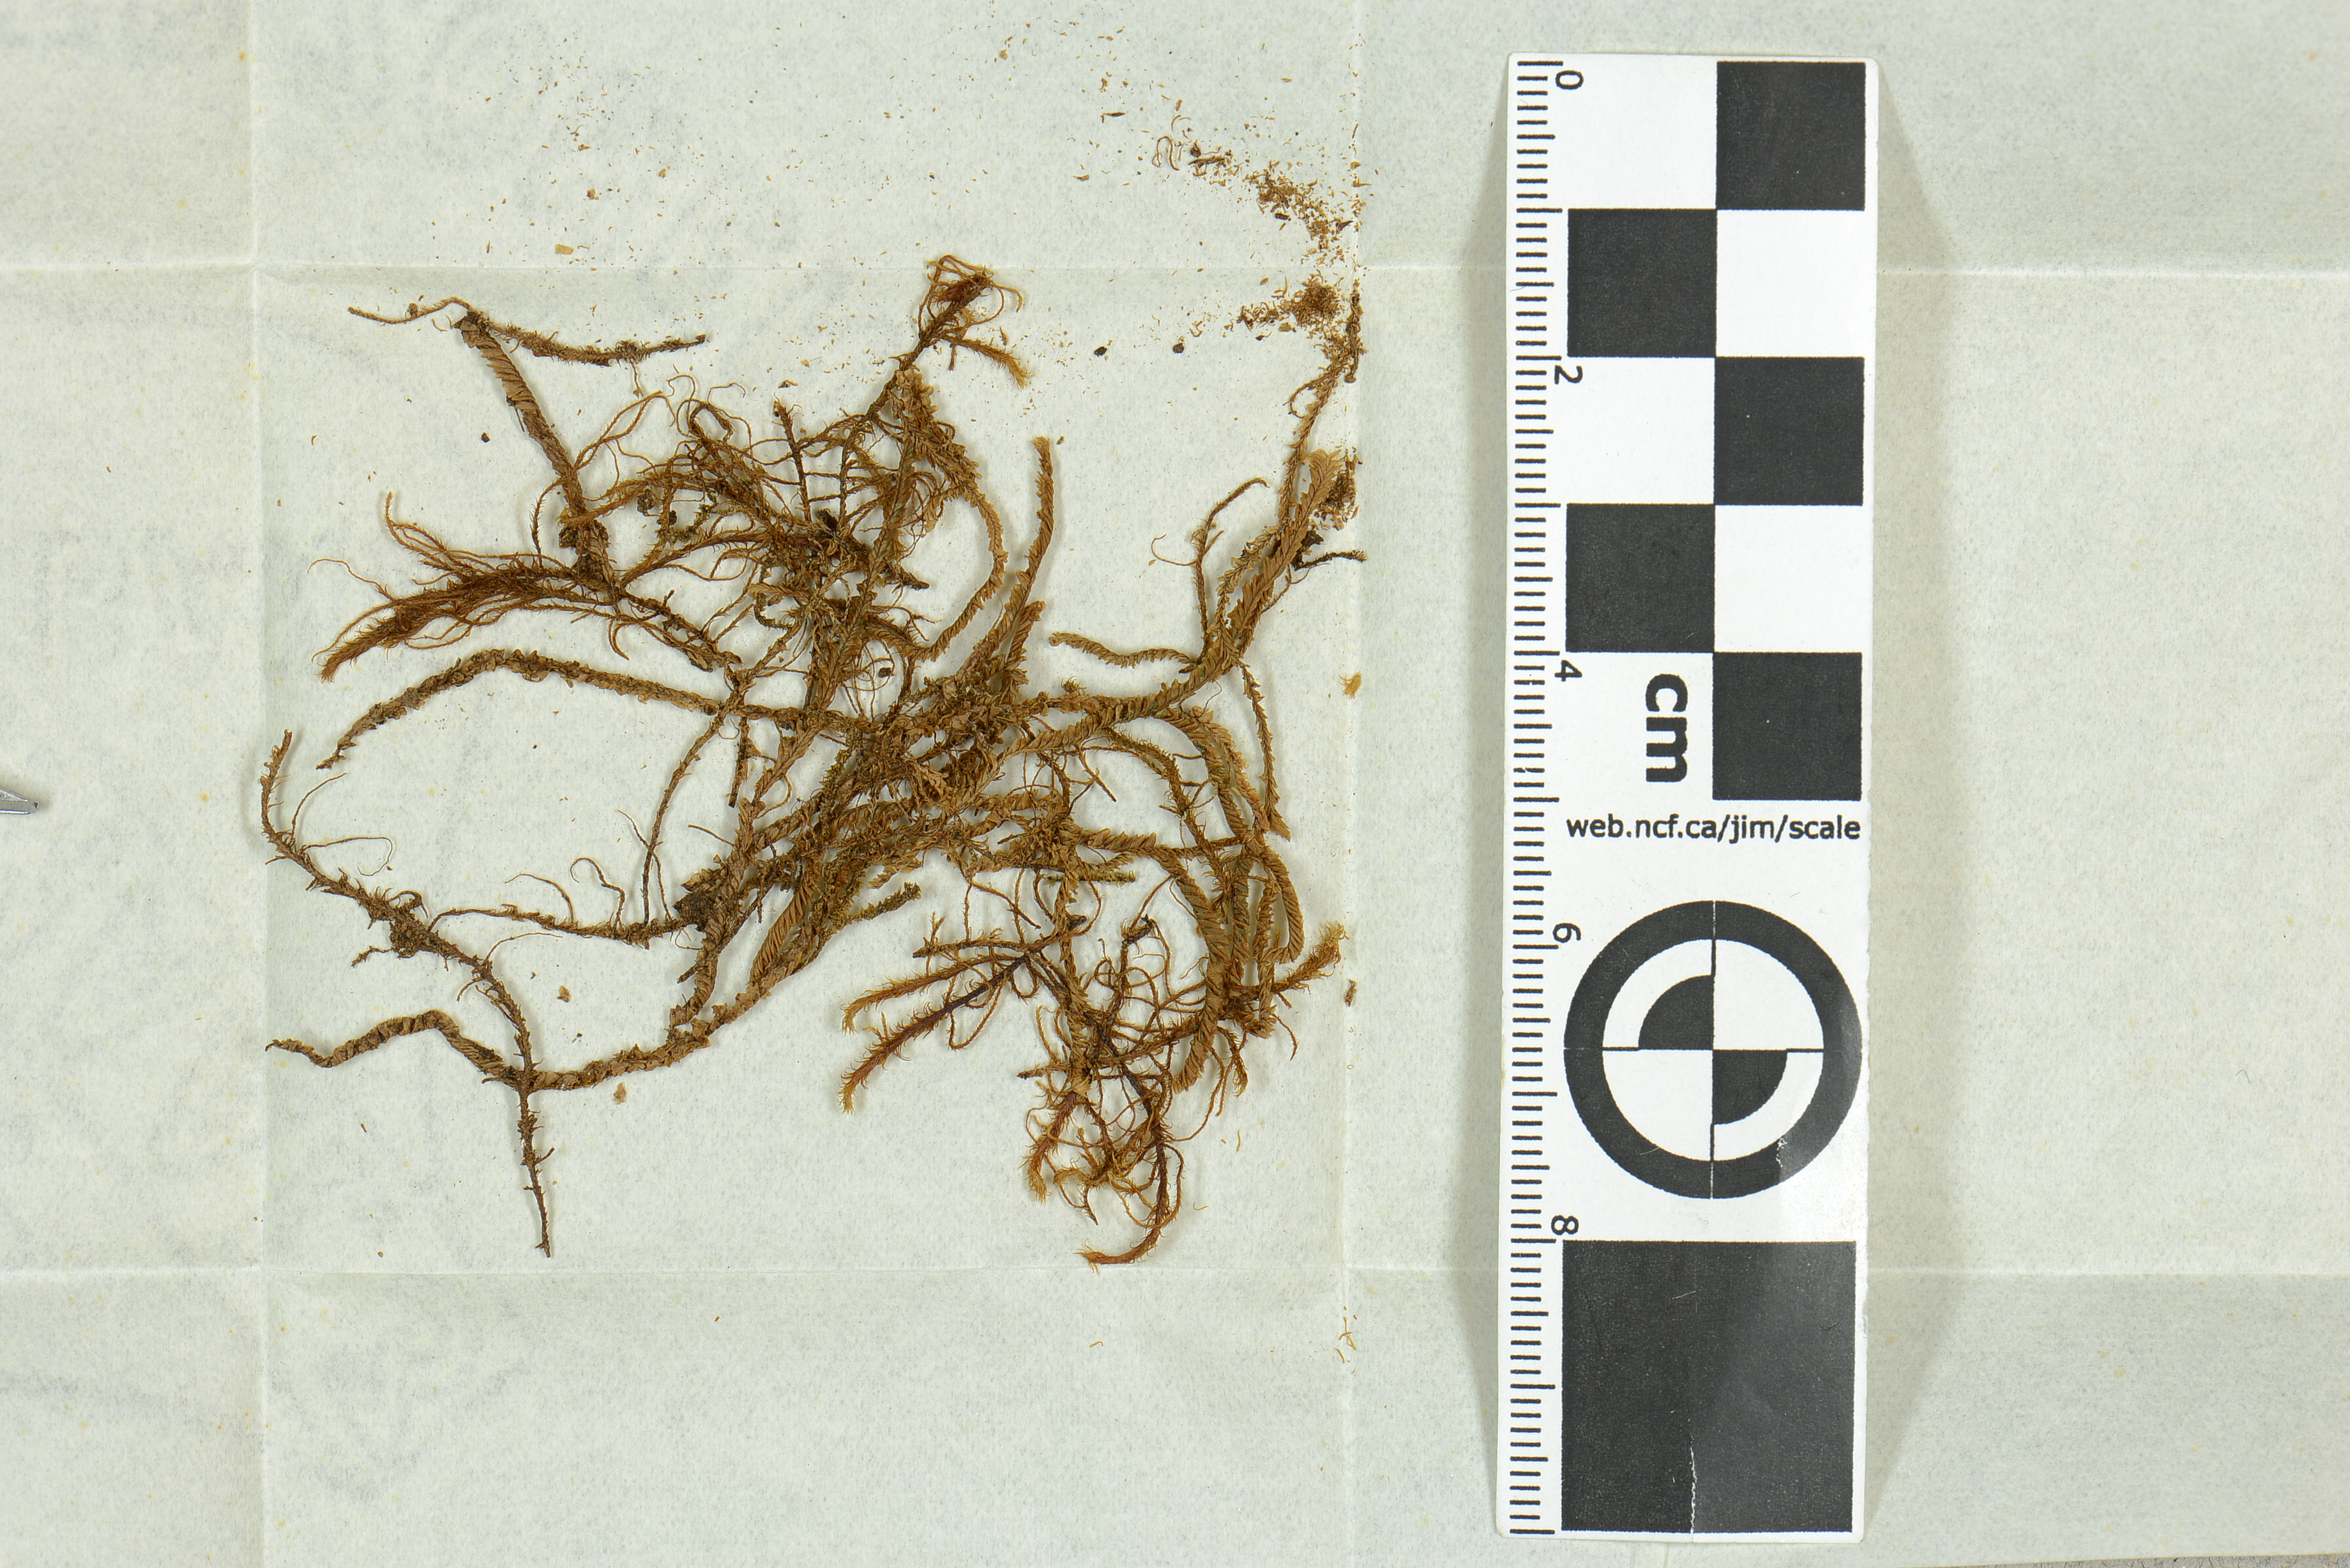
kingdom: Plantae
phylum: Marchantiophyta
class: Jungermanniopsida
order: Jungermanniales
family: Plagiochilaceae
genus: Plagiochila
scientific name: Plagiochila renitens
